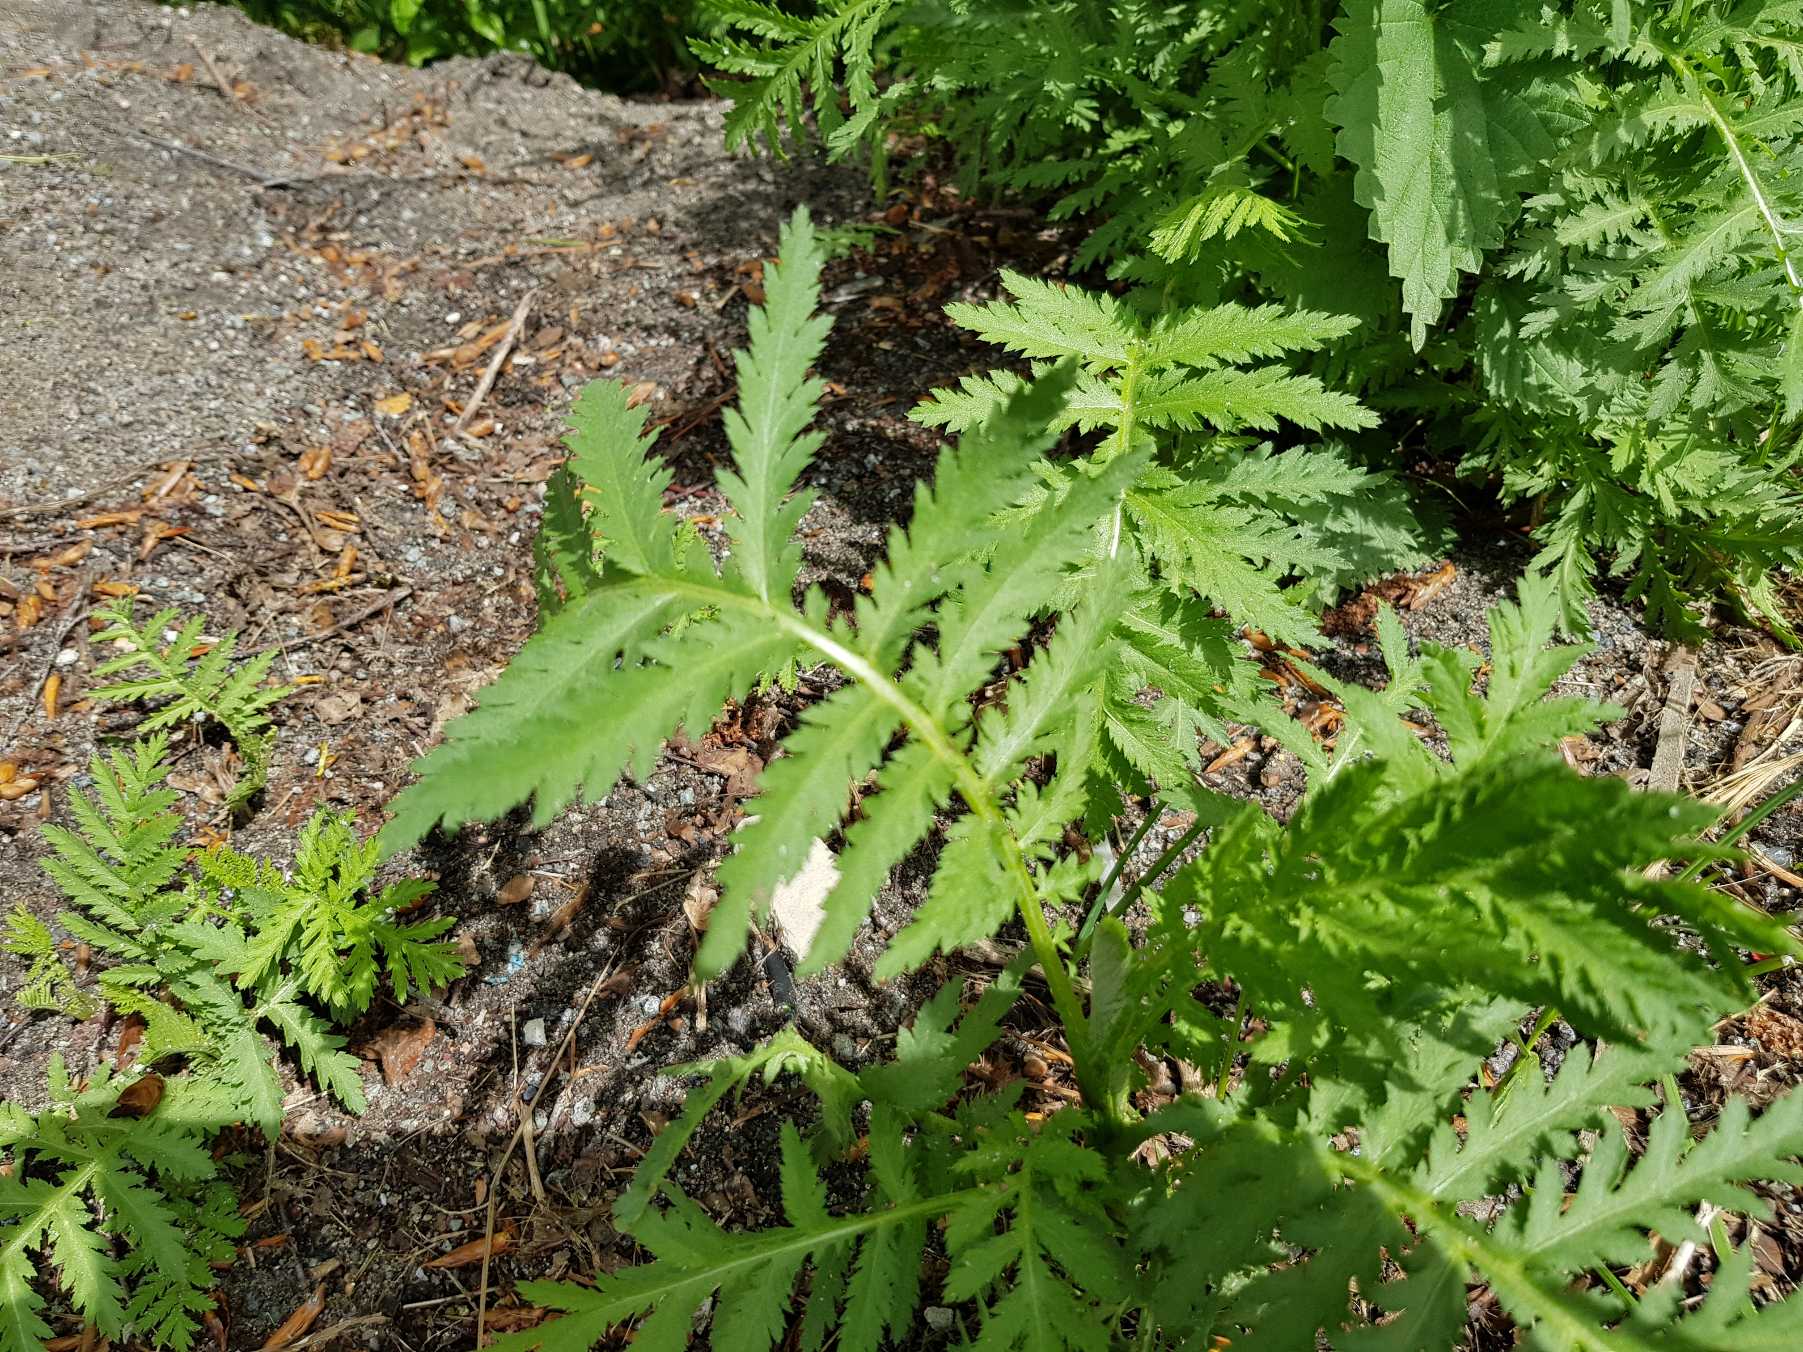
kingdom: Plantae
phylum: Tracheophyta
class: Magnoliopsida
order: Asterales
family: Asteraceae
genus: Tanacetum
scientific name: Tanacetum vulgare
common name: Rejnfan
